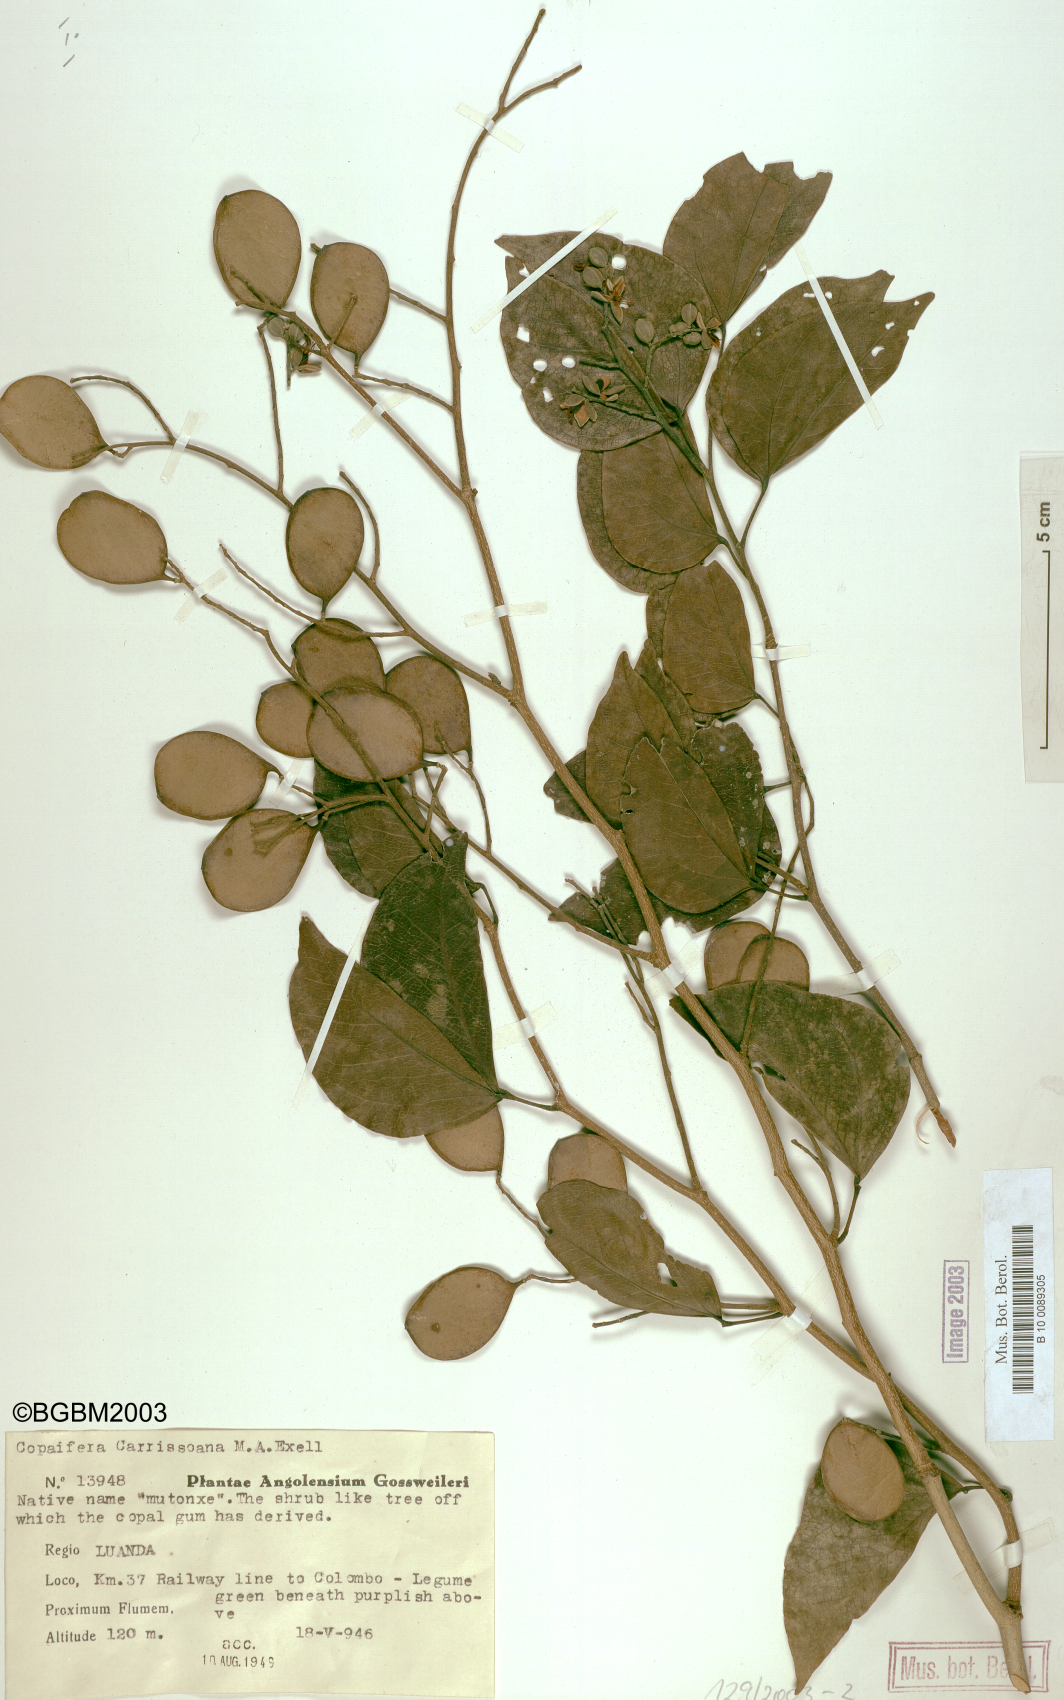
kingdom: Plantae
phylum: Tracheophyta
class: Magnoliopsida
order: Fabales
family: Fabaceae
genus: Copaifera
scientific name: Copaifera carrissoana
